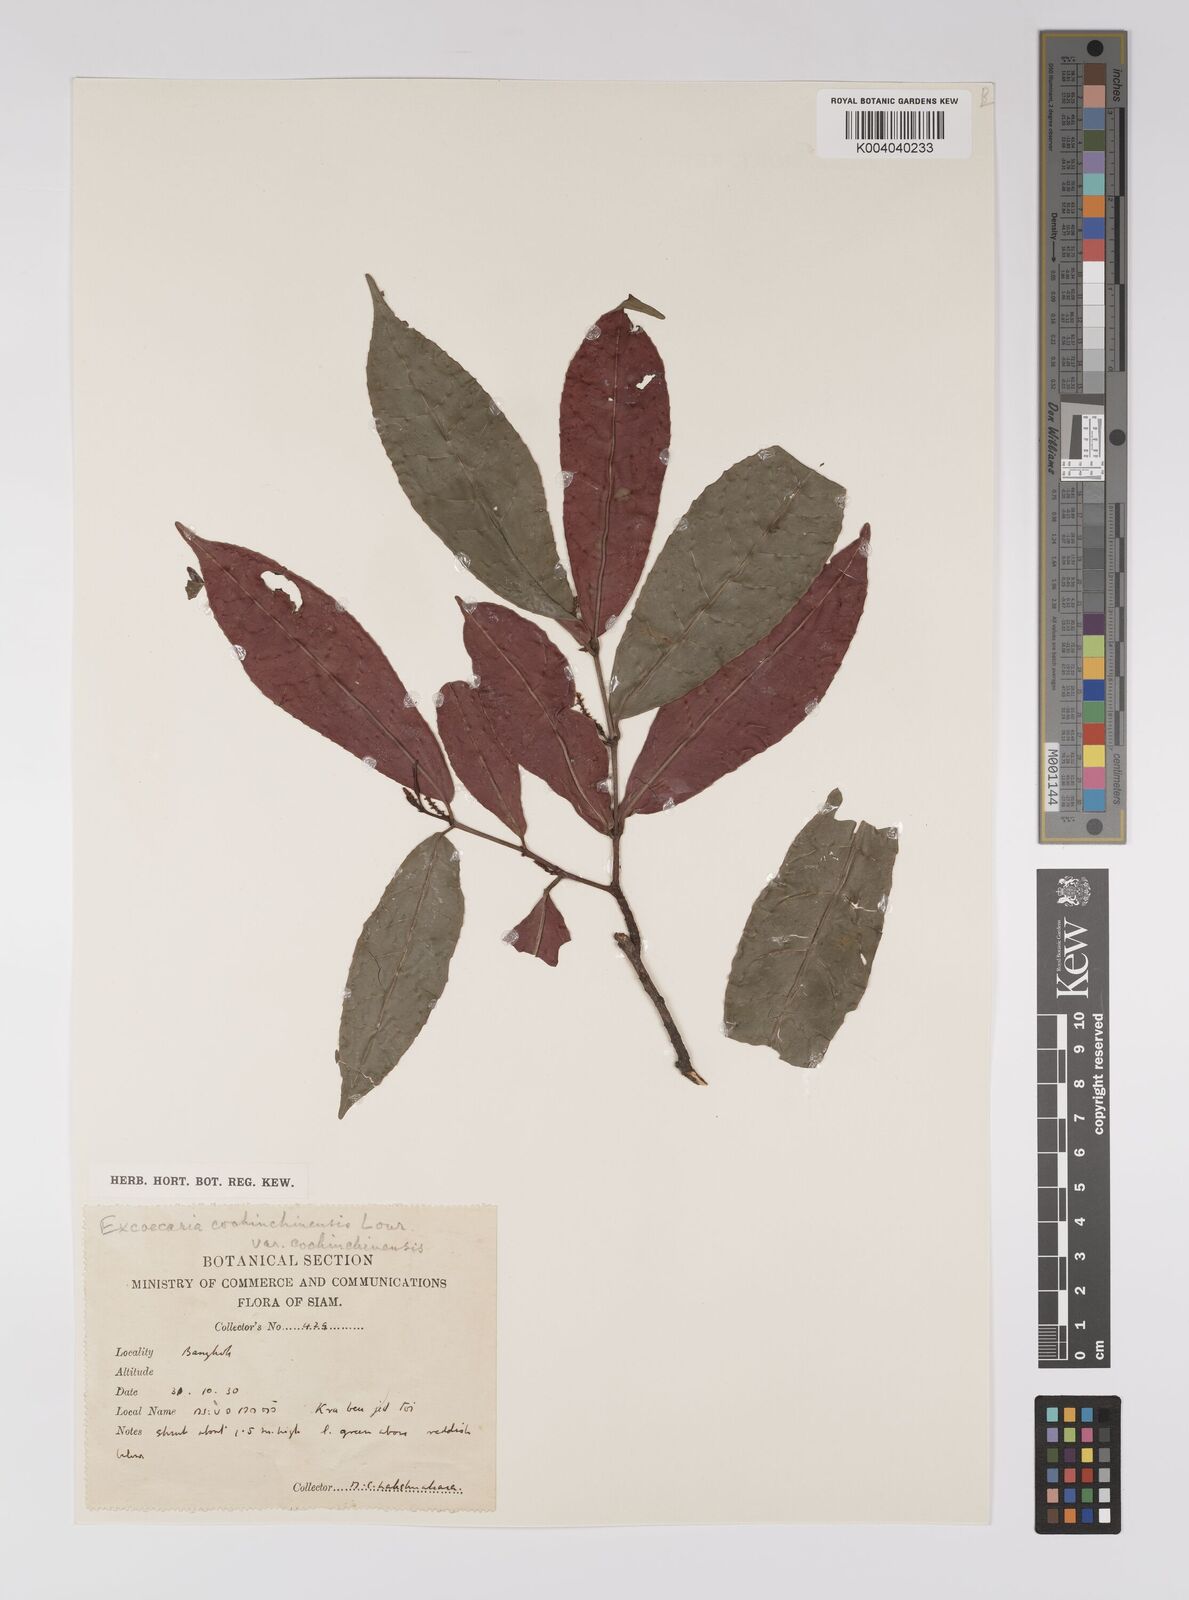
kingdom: Plantae
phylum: Tracheophyta
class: Magnoliopsida
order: Malpighiales
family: Euphorbiaceae
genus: Excoecaria
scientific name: Excoecaria cochinchinensis
